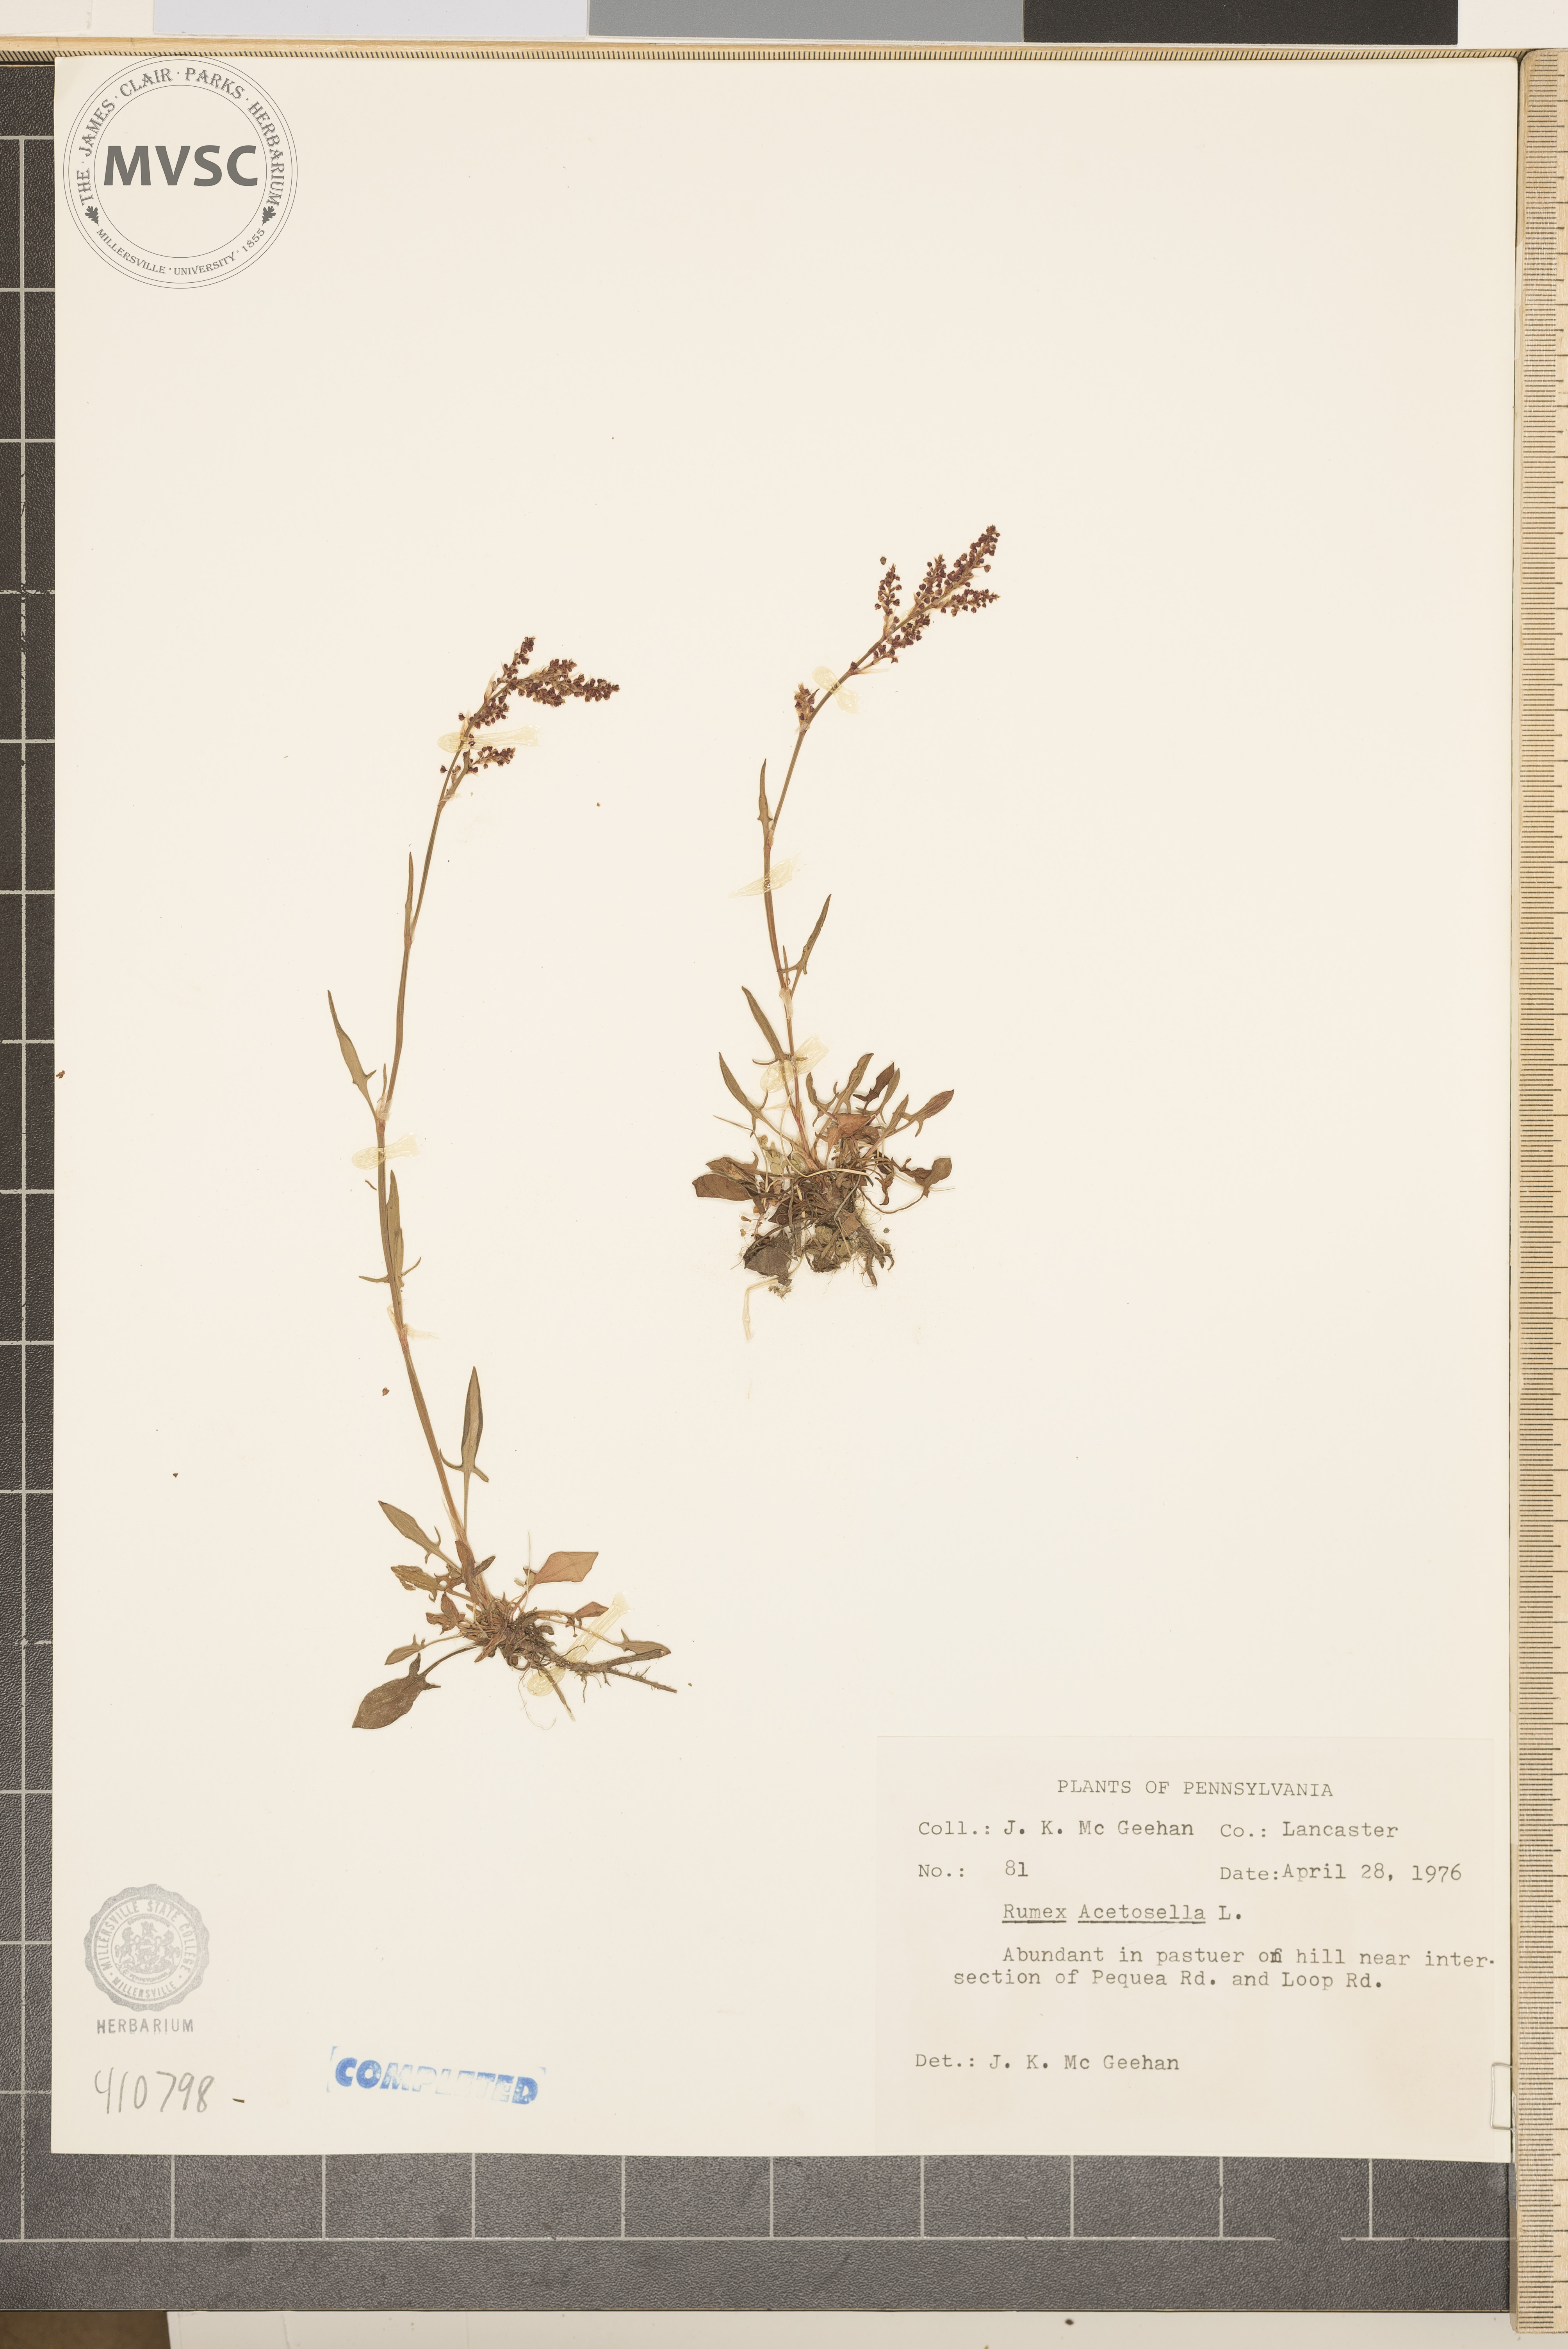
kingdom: Plantae
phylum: Tracheophyta
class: Magnoliopsida
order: Caryophyllales
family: Polygonaceae
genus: Rumex
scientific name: Rumex acetosella
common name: Common sheep sorrel
